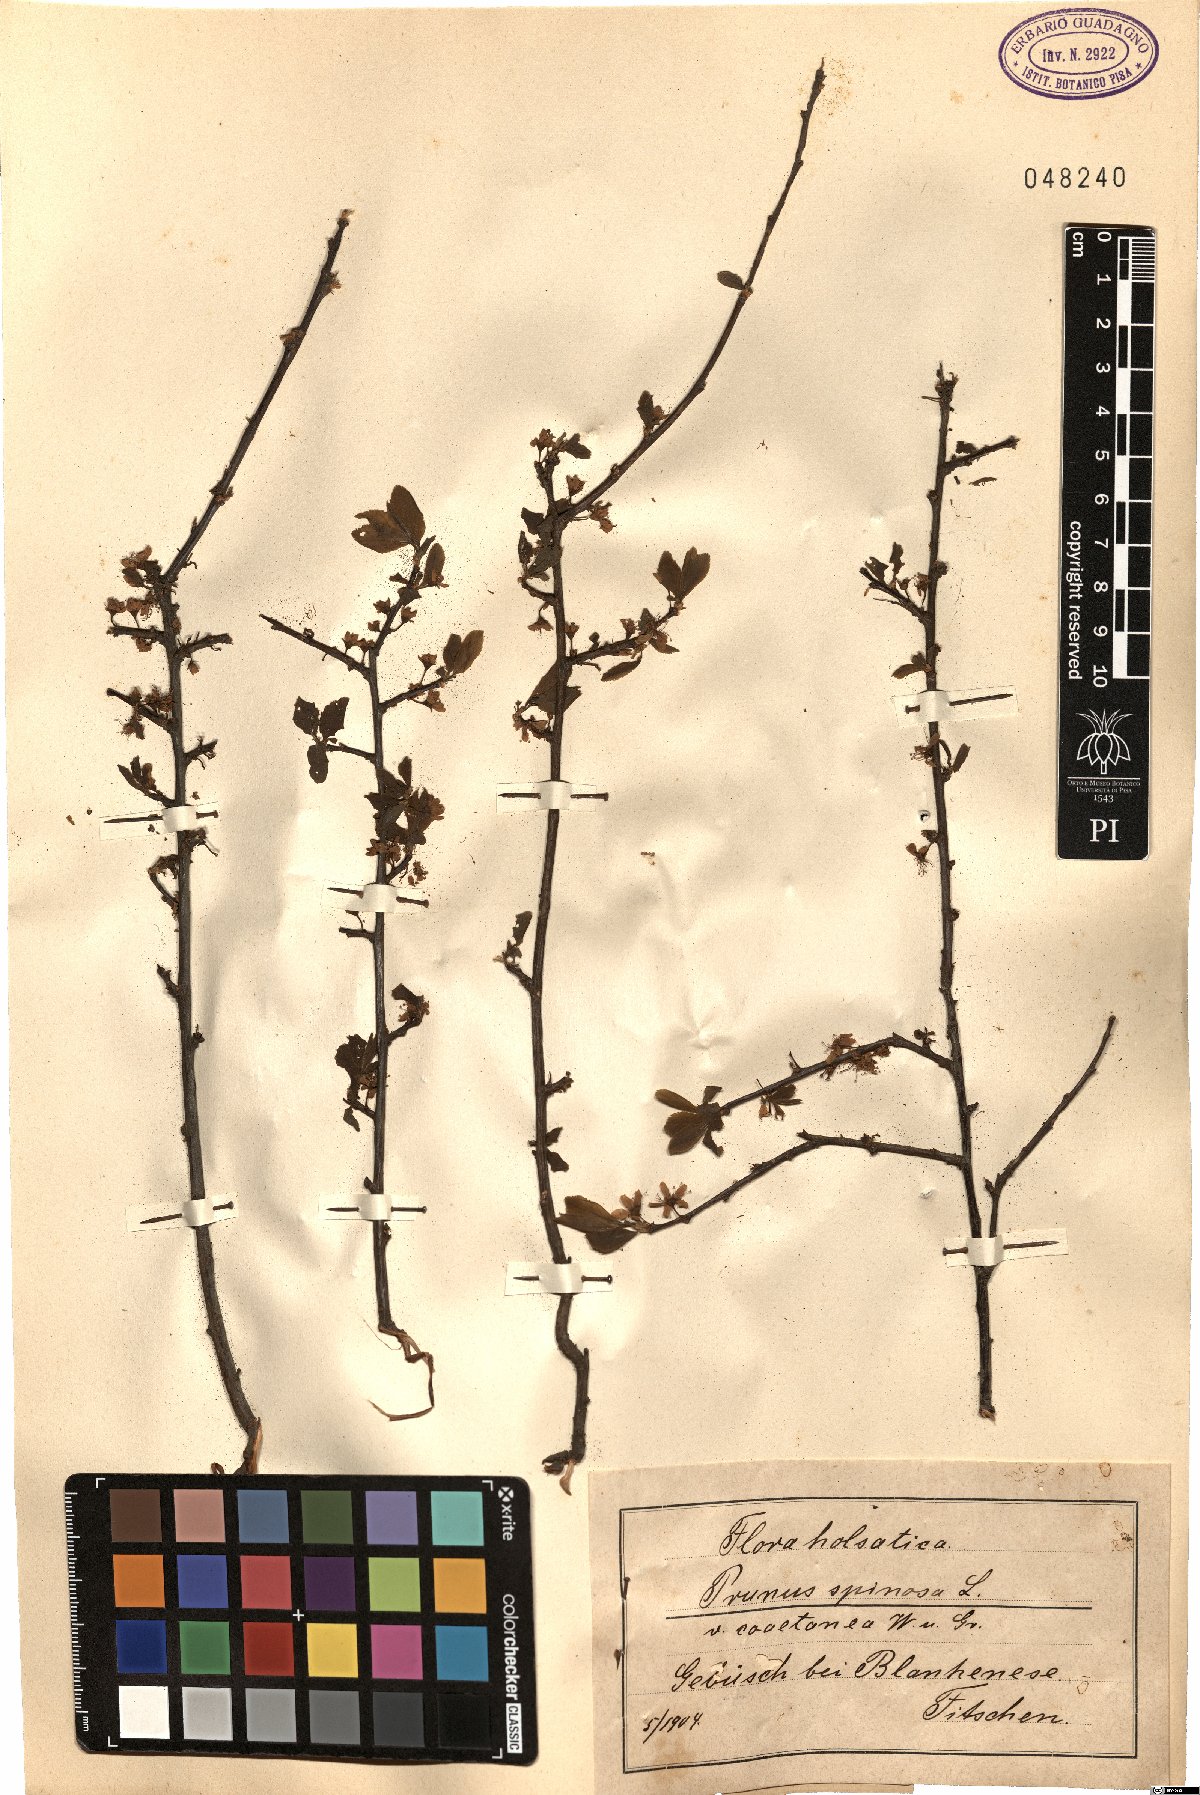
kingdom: Plantae
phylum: Tracheophyta
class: Magnoliopsida
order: Rosales
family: Rosaceae
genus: Prunus
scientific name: Prunus
